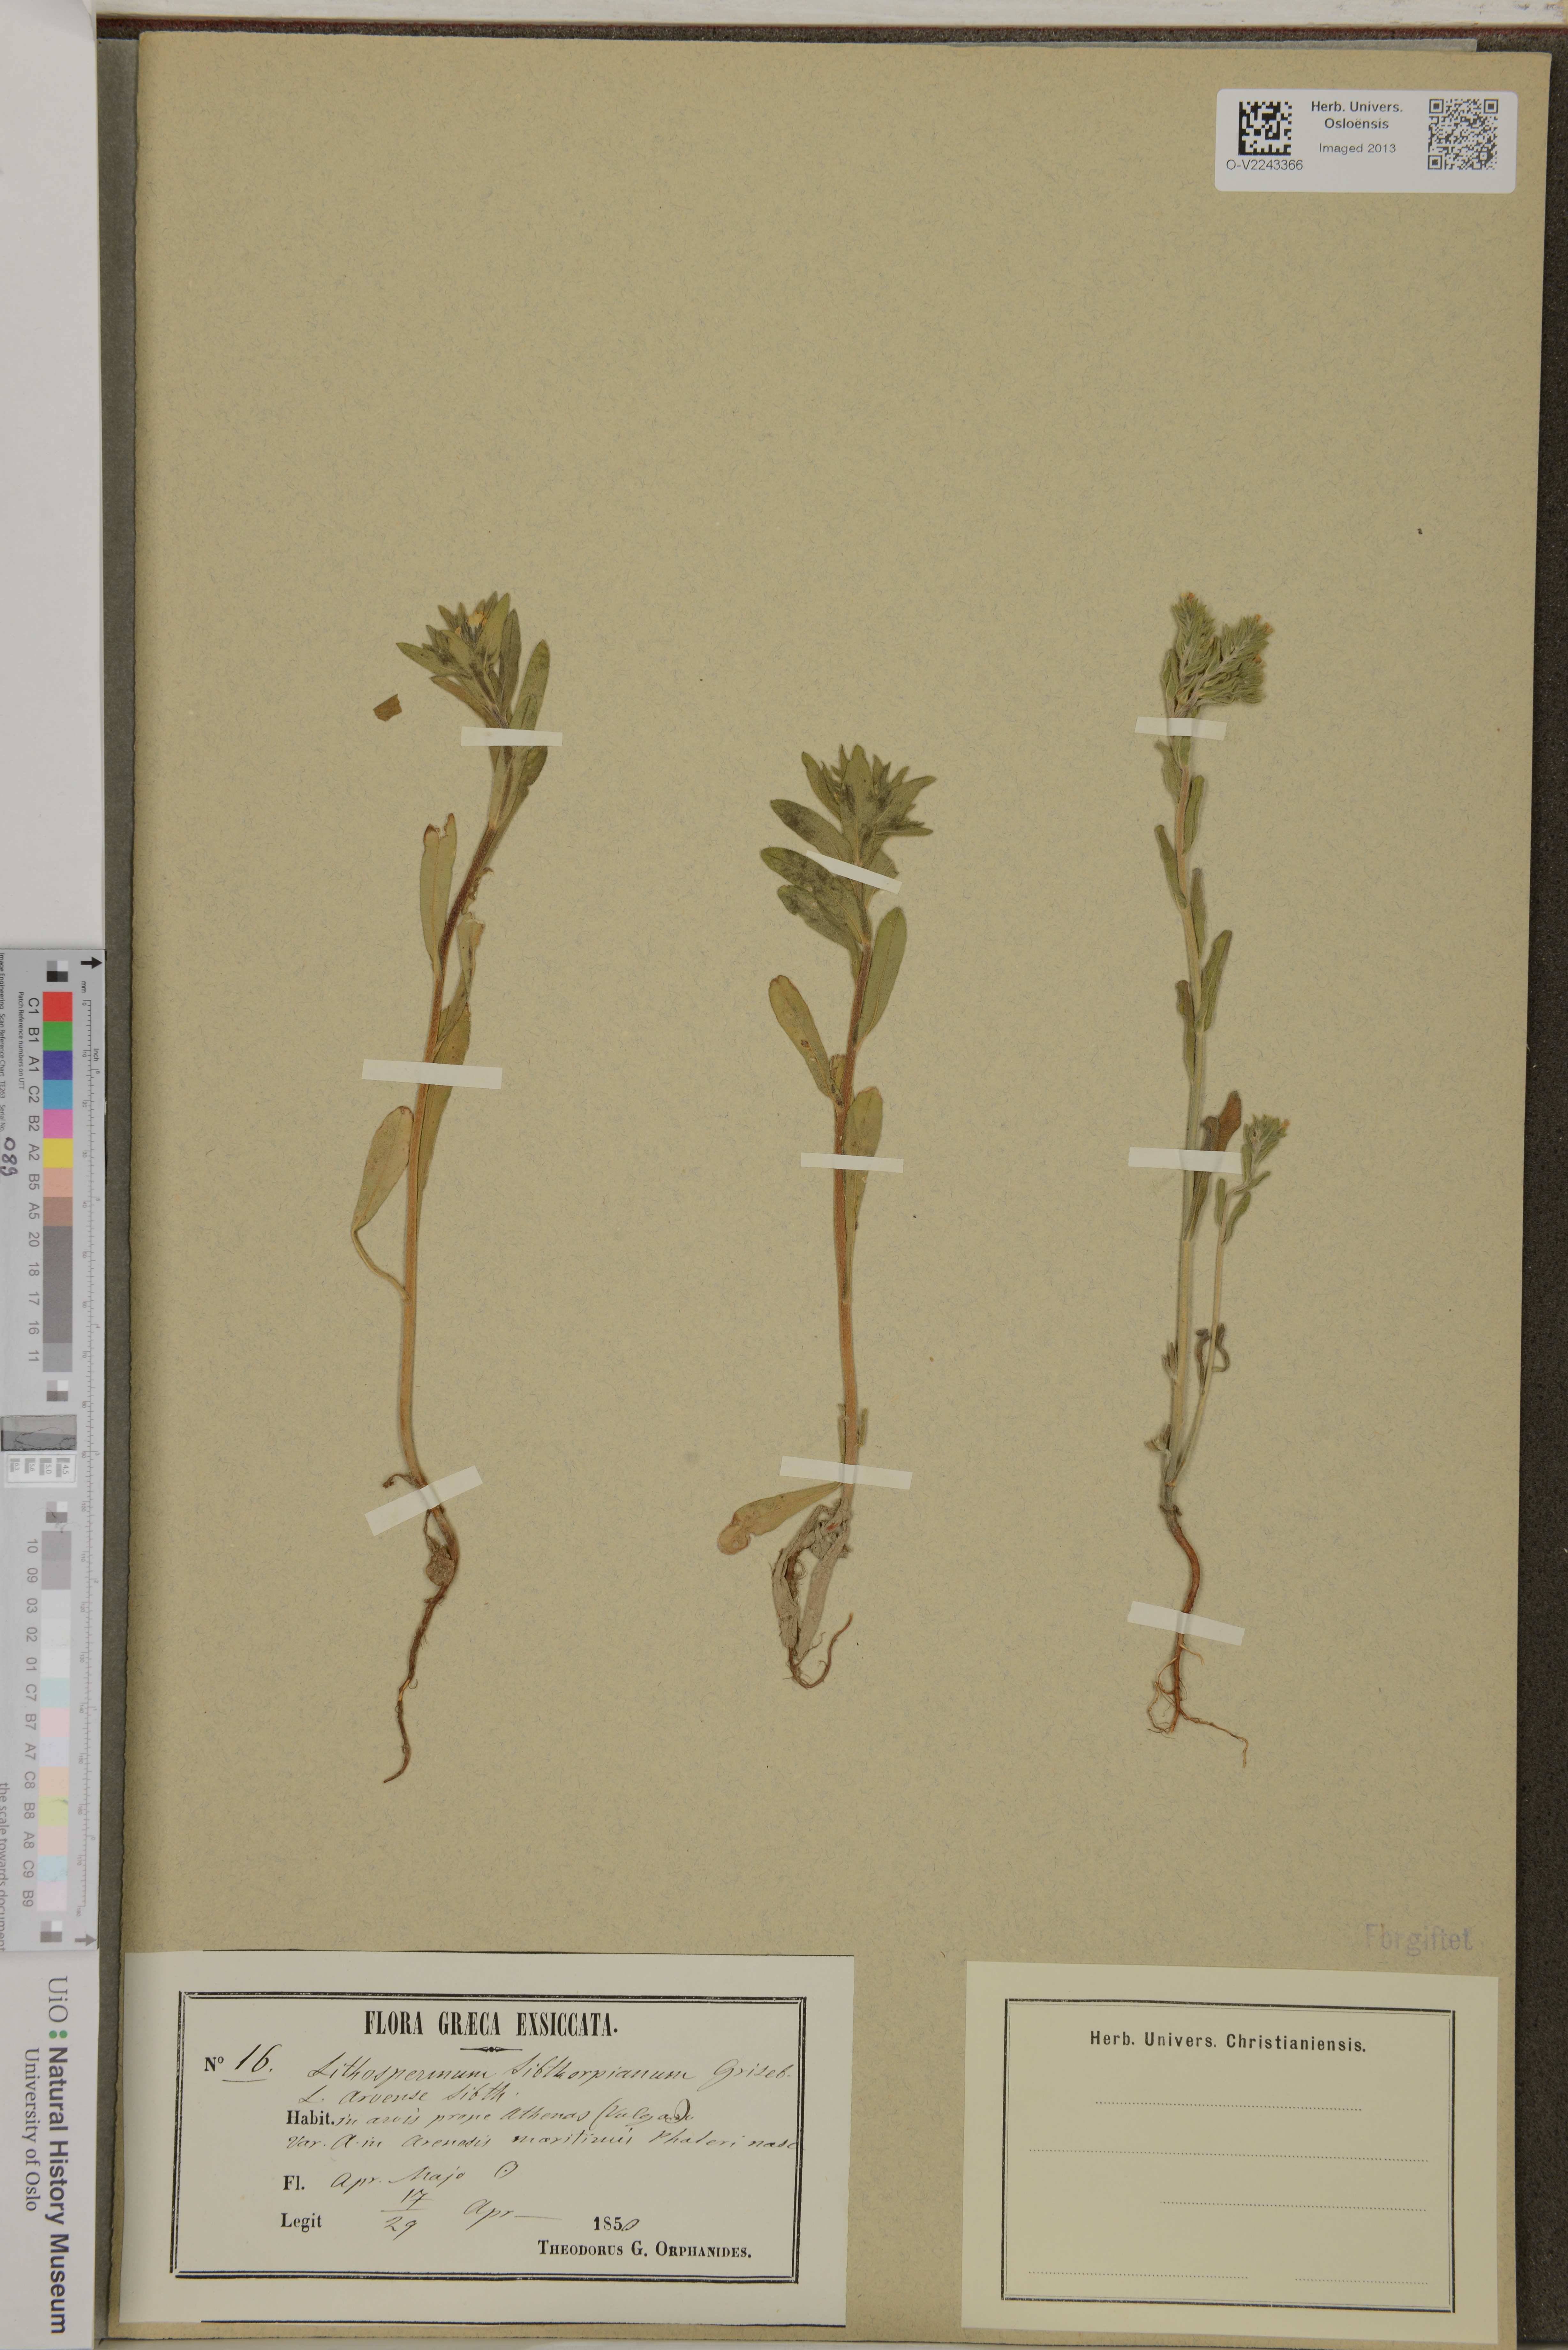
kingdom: Plantae
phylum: Tracheophyta
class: Magnoliopsida
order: Boraginales
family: Boraginaceae
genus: Buglossoides
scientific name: Buglossoides arvensis
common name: Corn gromwell
